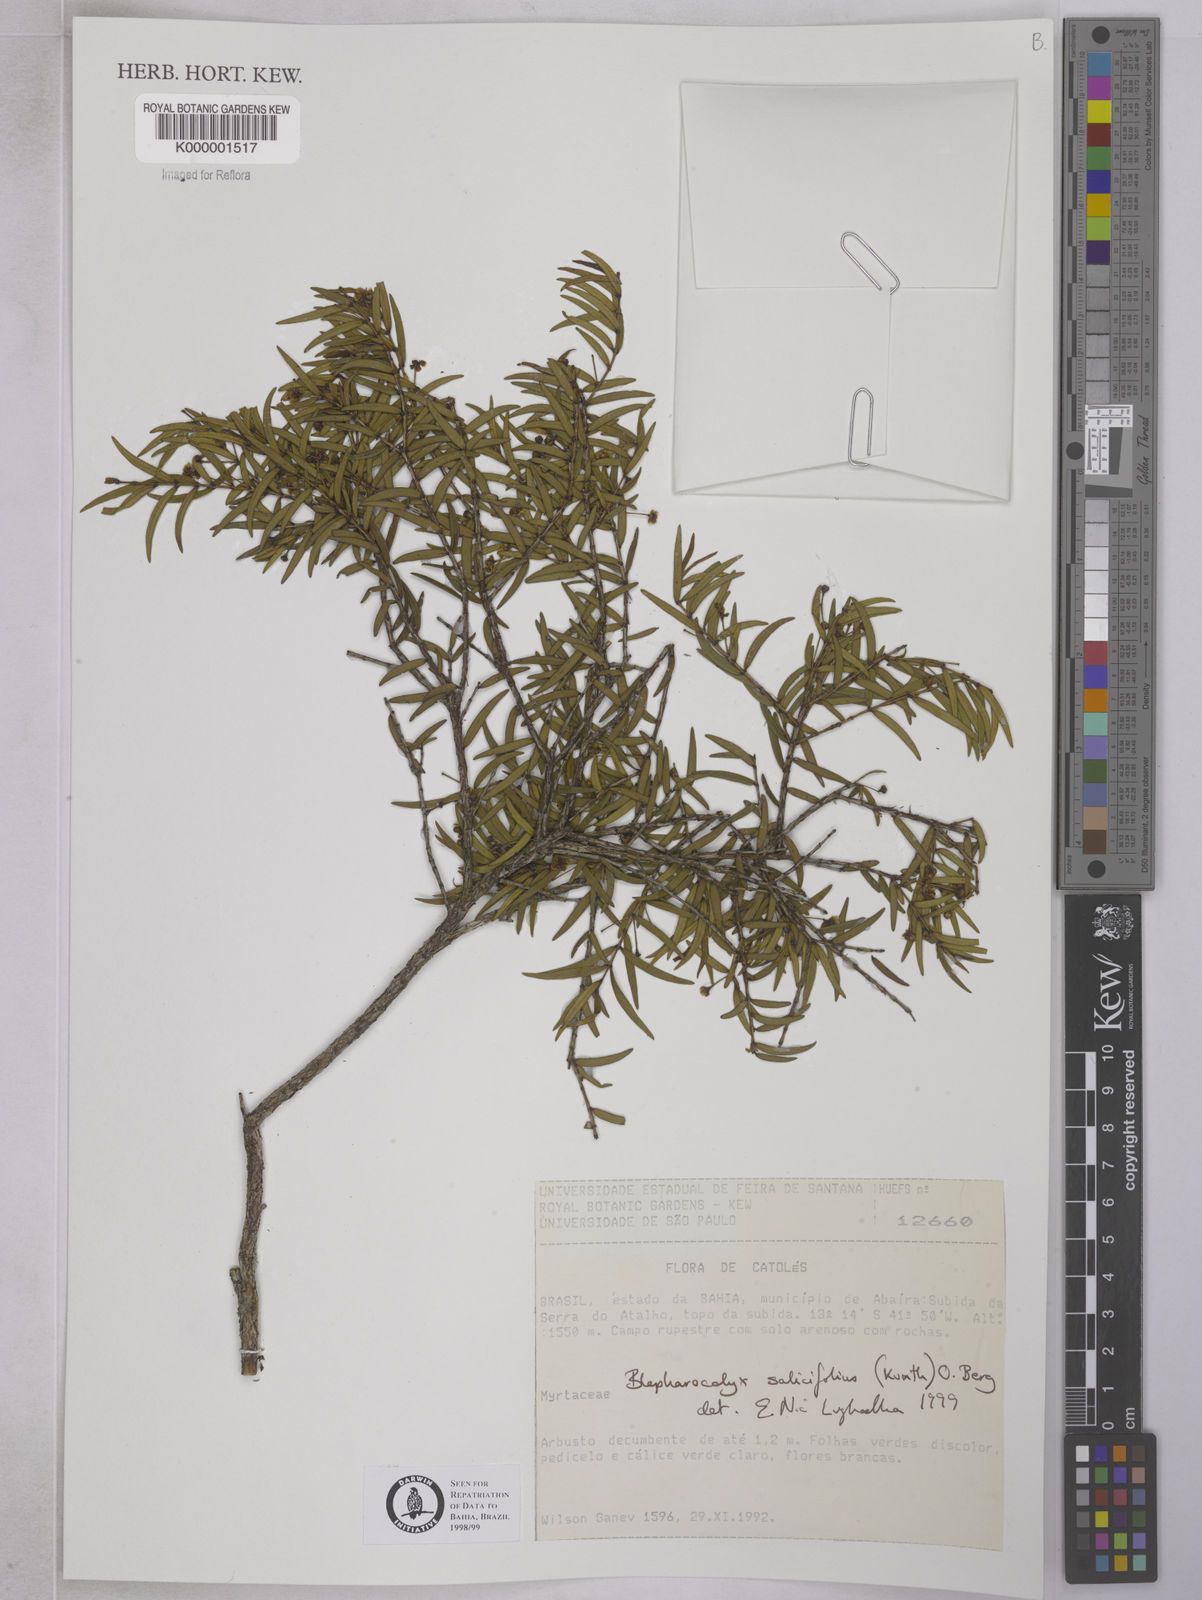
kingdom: Plantae
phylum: Tracheophyta
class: Magnoliopsida
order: Myrtales
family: Myrtaceae
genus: Blepharocalyx
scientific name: Blepharocalyx salicifolius
